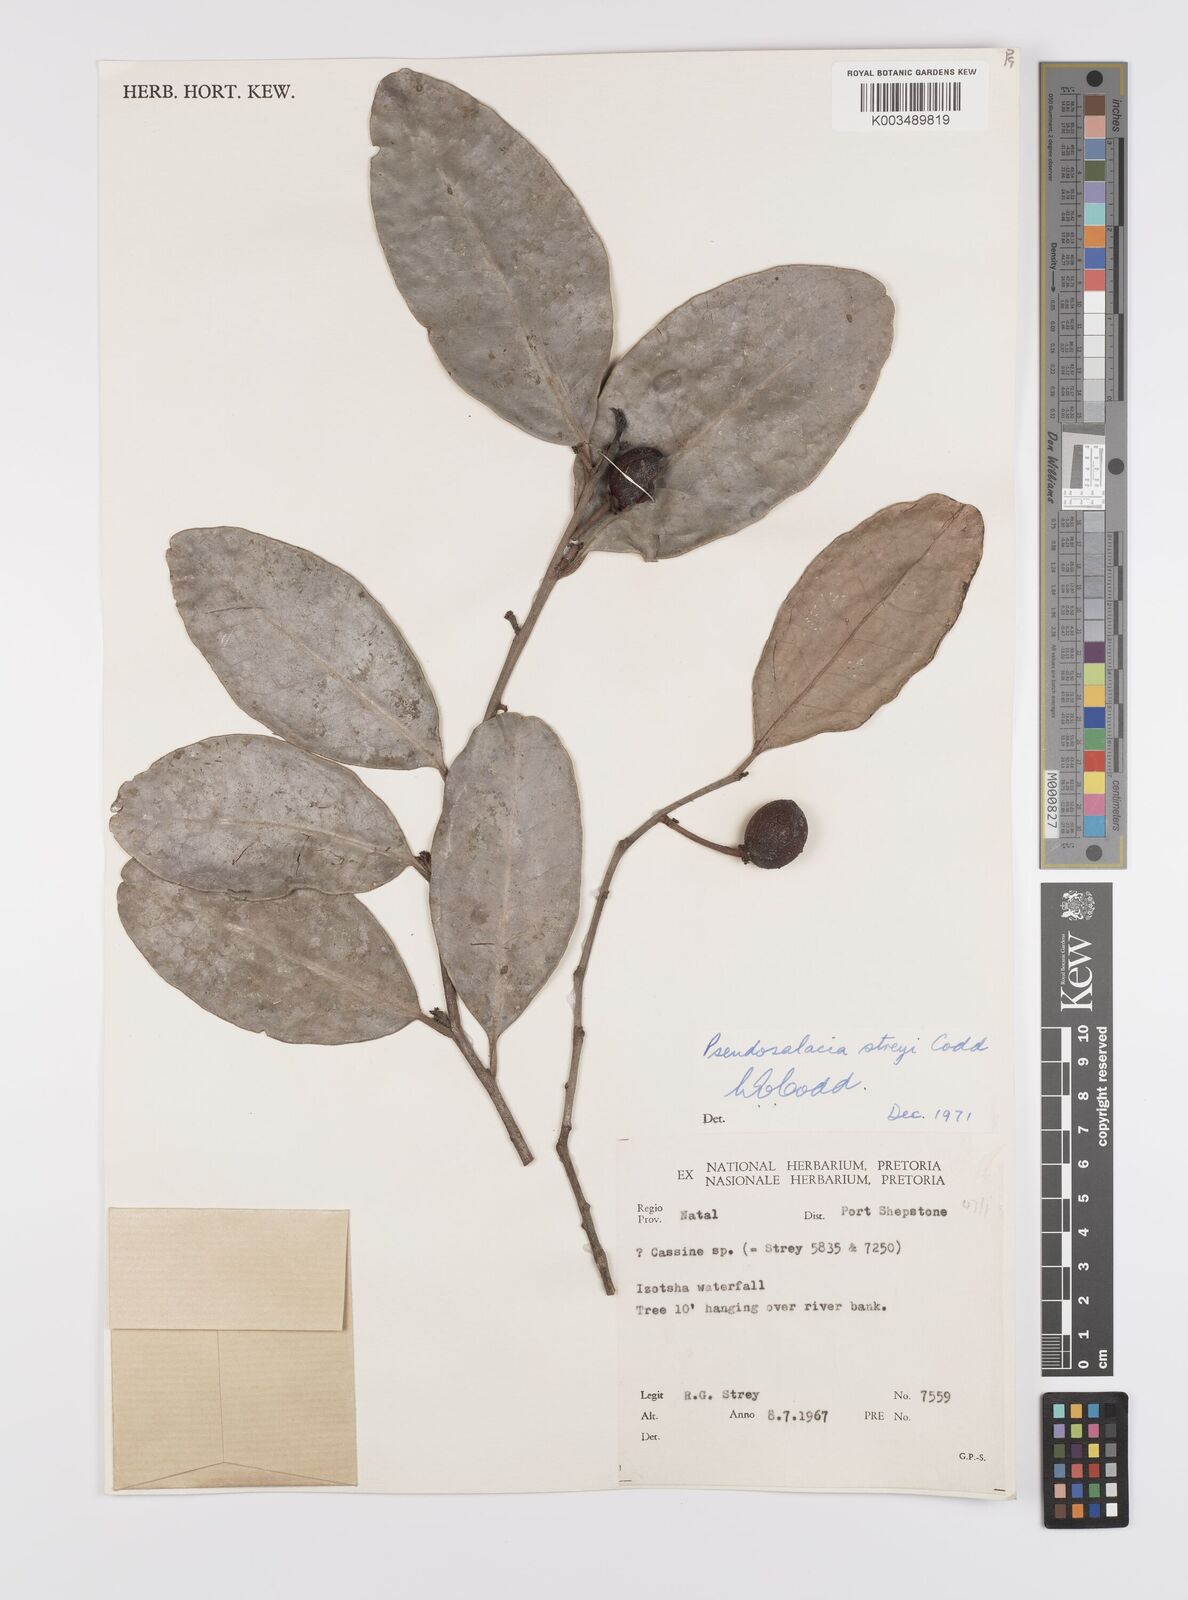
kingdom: Plantae
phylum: Tracheophyta
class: Magnoliopsida
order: Celastrales
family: Celastraceae
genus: Pseudosalacia
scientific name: Pseudosalacia streyi
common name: Bastard lemon
